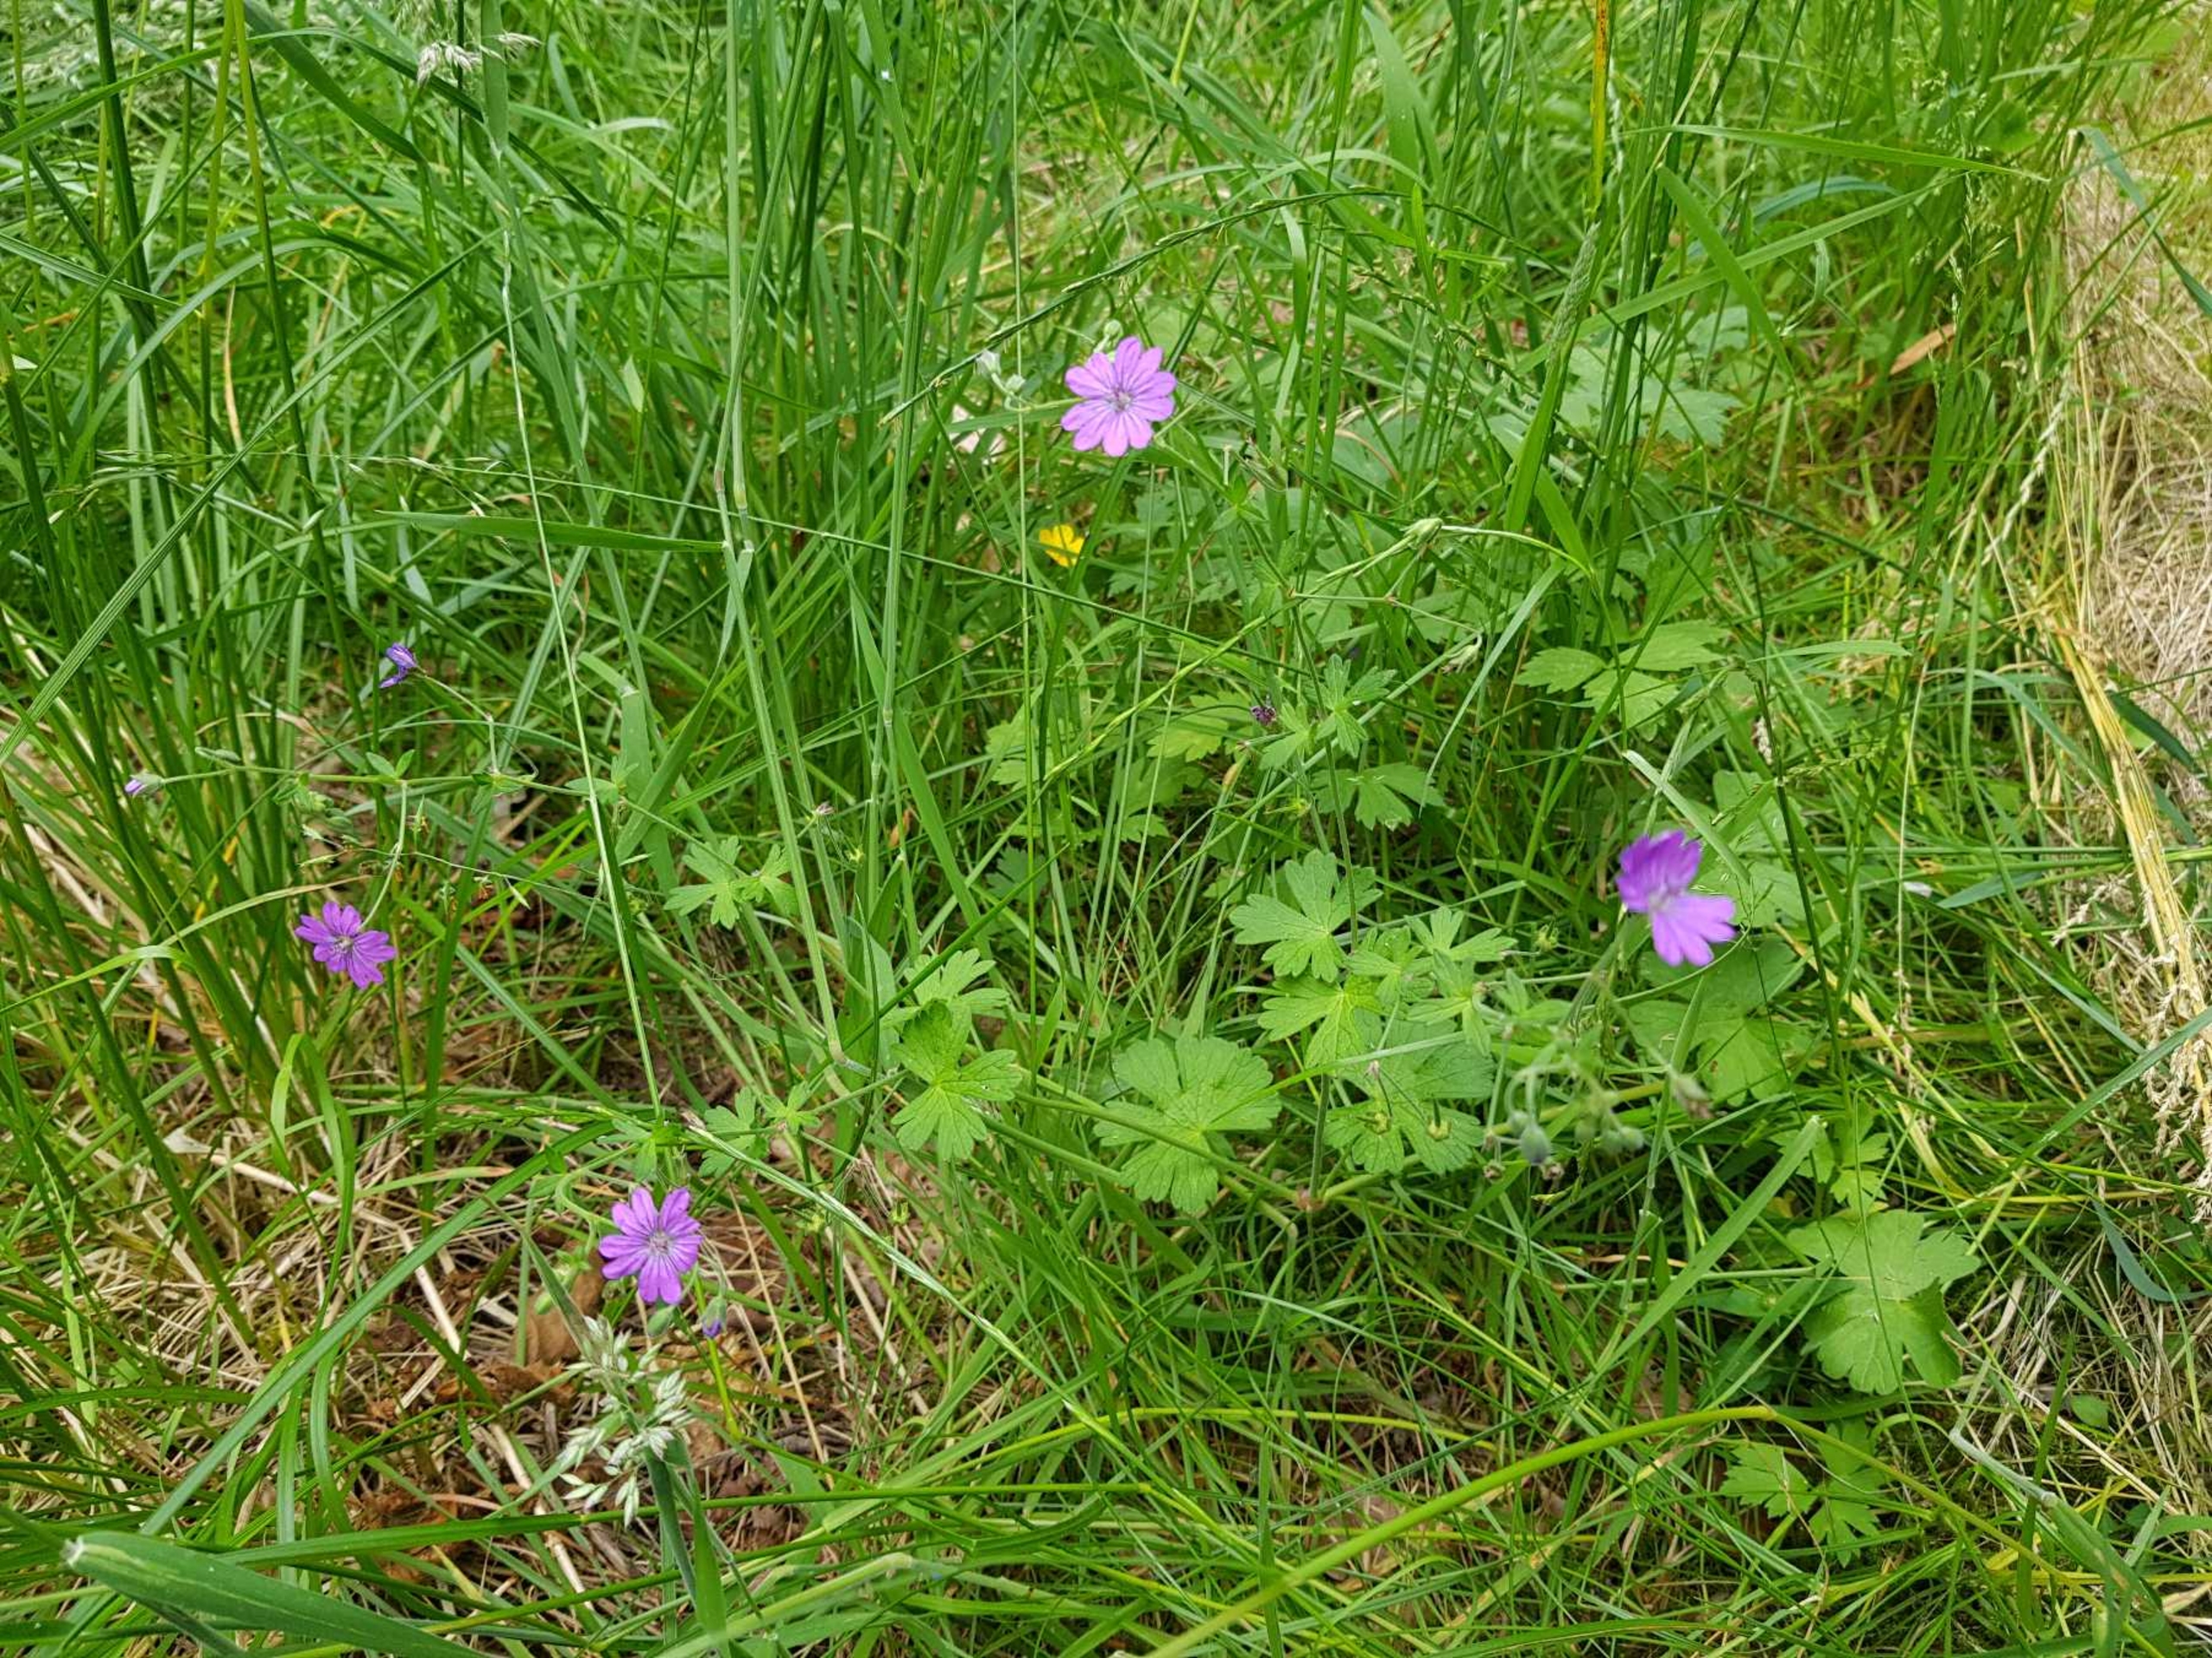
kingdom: Plantae
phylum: Tracheophyta
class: Magnoliopsida
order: Geraniales
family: Geraniaceae
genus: Geranium
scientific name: Geranium pyrenaicum
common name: Pyrenæisk storkenæb
